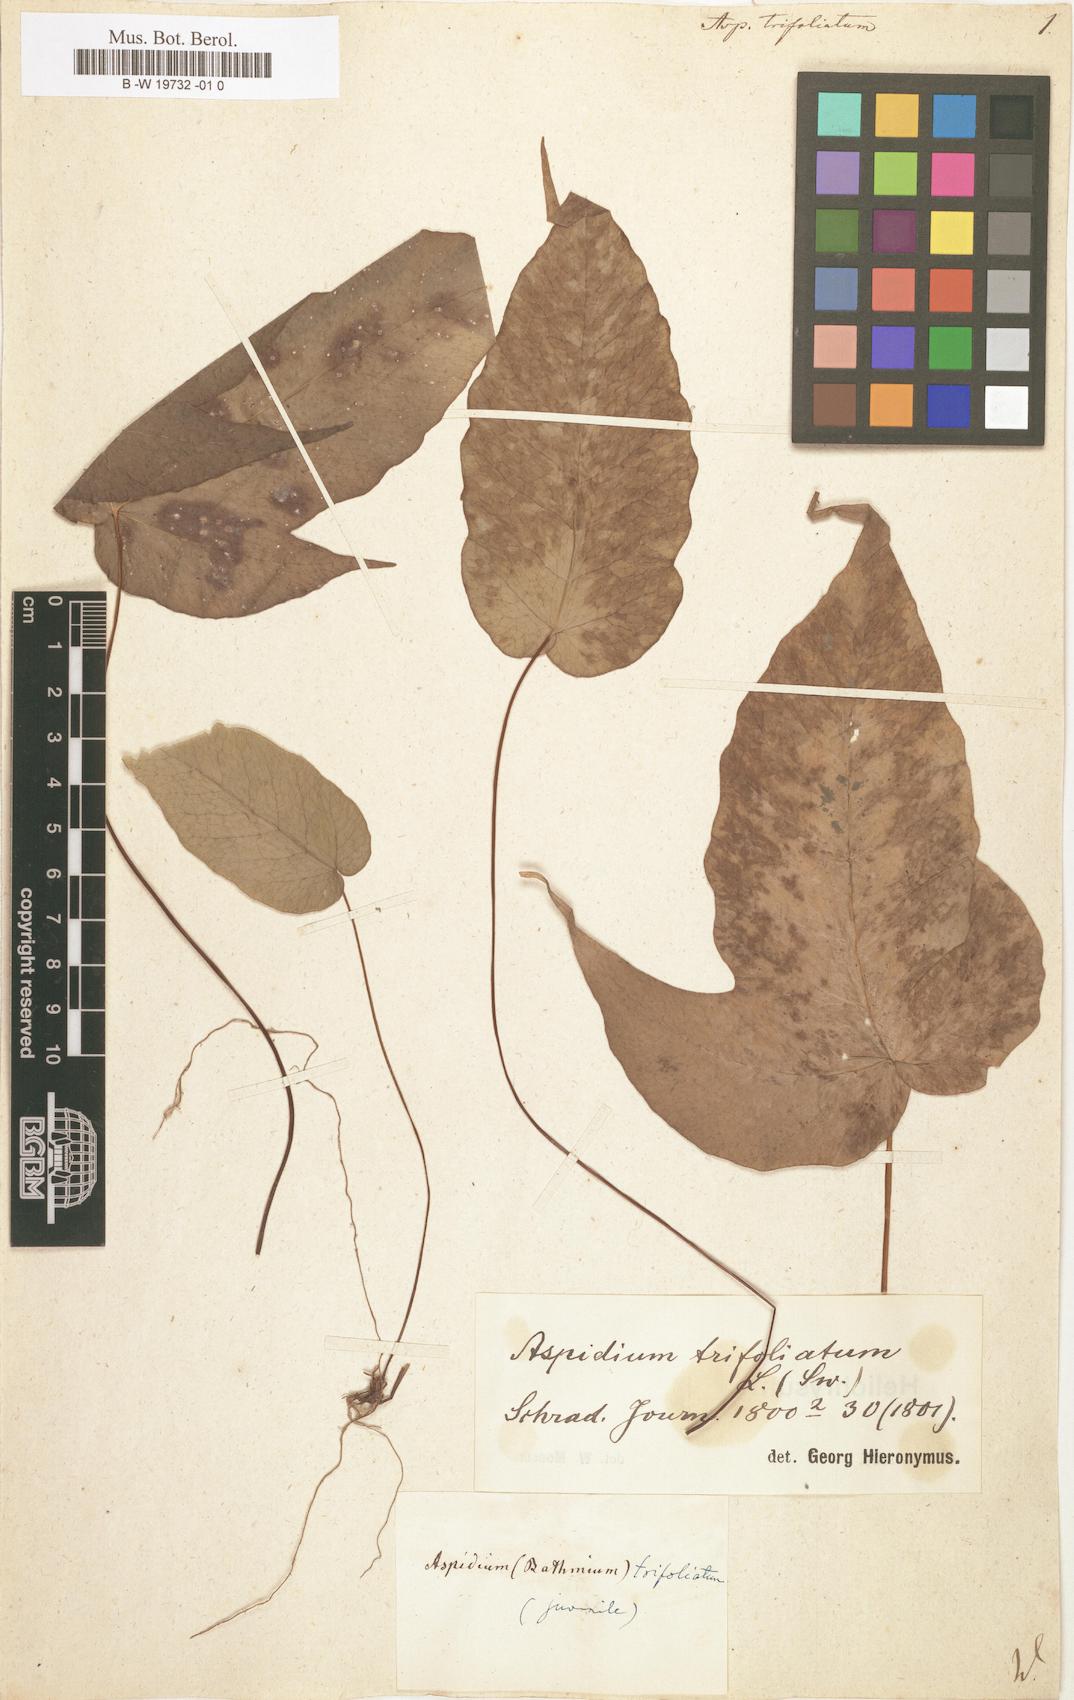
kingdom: Plantae
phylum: Tracheophyta
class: Polypodiopsida
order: Polypodiales
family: Tectariaceae
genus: Tectaria
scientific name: Tectaria
